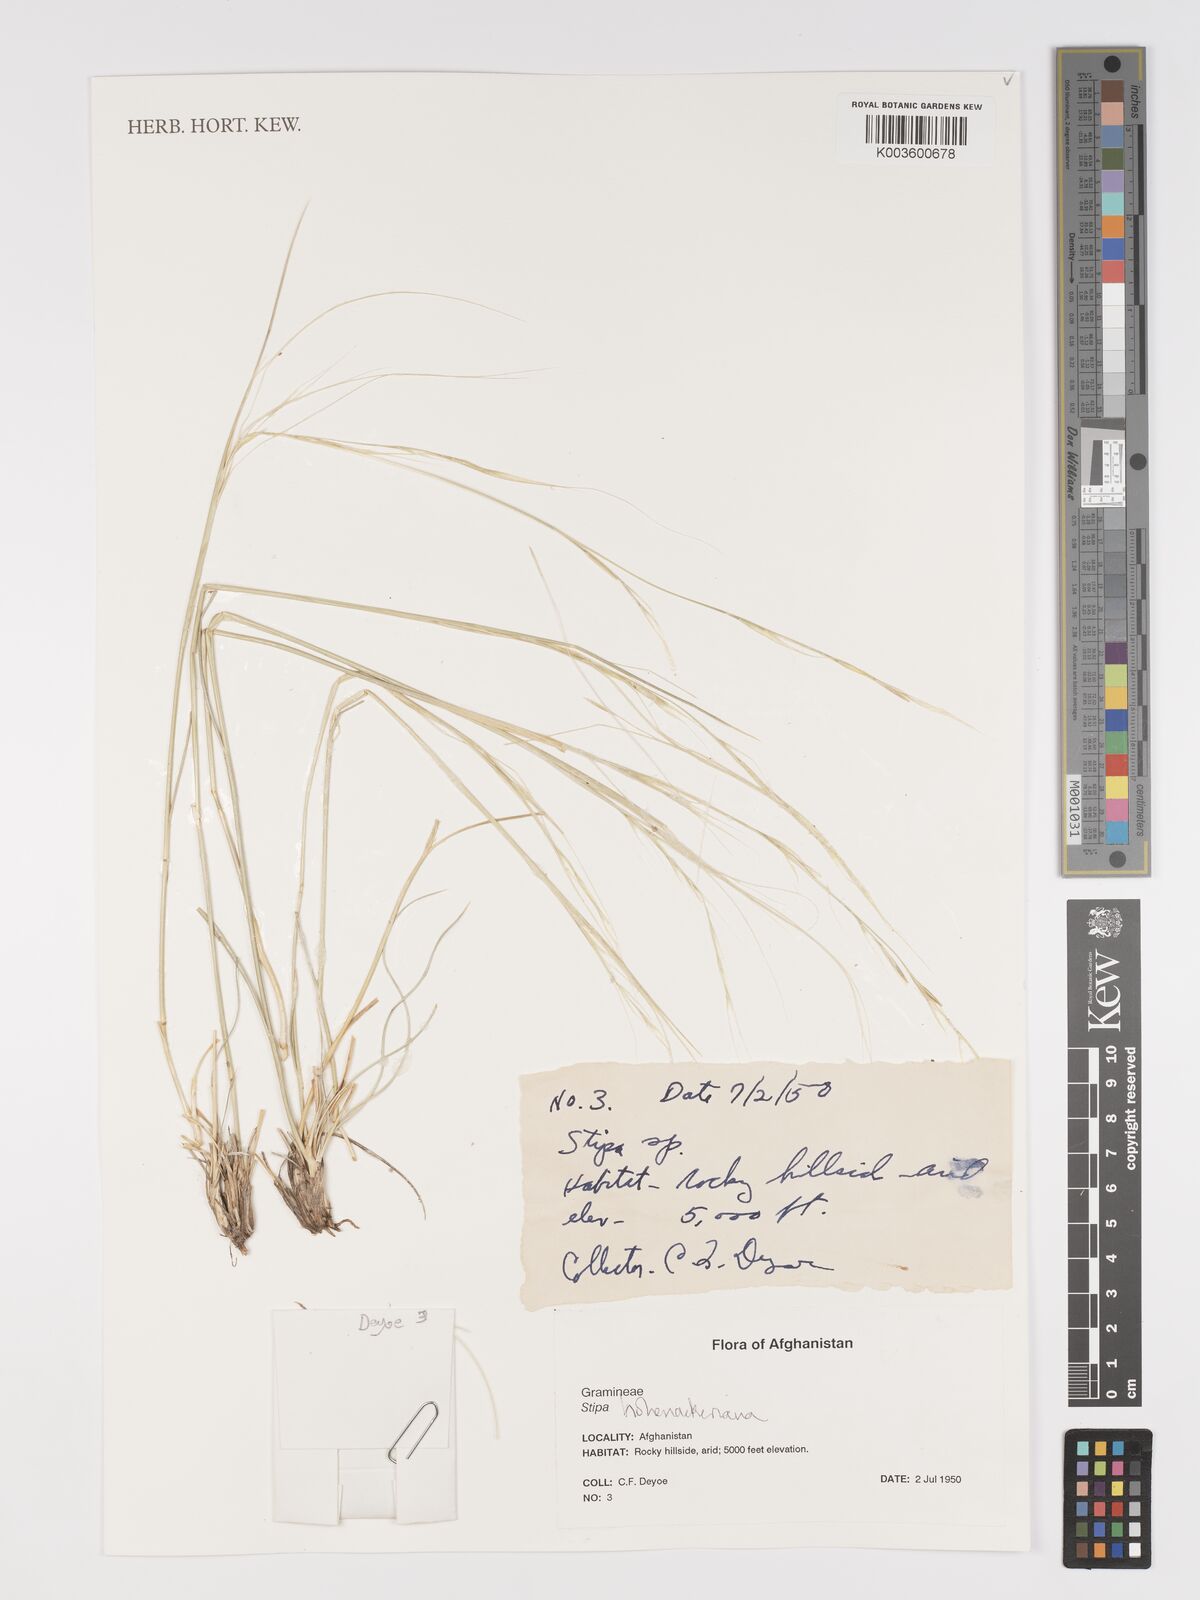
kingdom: Plantae
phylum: Tracheophyta
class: Liliopsida
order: Poales
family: Poaceae
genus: Stipa
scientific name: Stipa hohenackeriana
